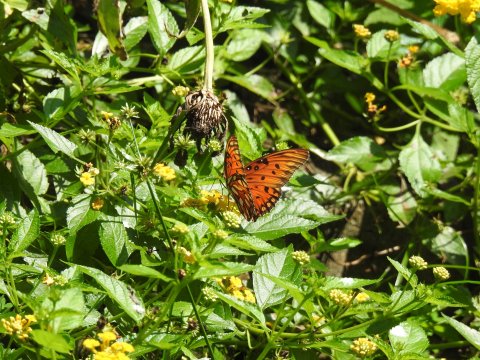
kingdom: Animalia
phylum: Arthropoda
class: Insecta
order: Lepidoptera
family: Nymphalidae
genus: Dione
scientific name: Dione vanillae
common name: Gulf Fritillary
